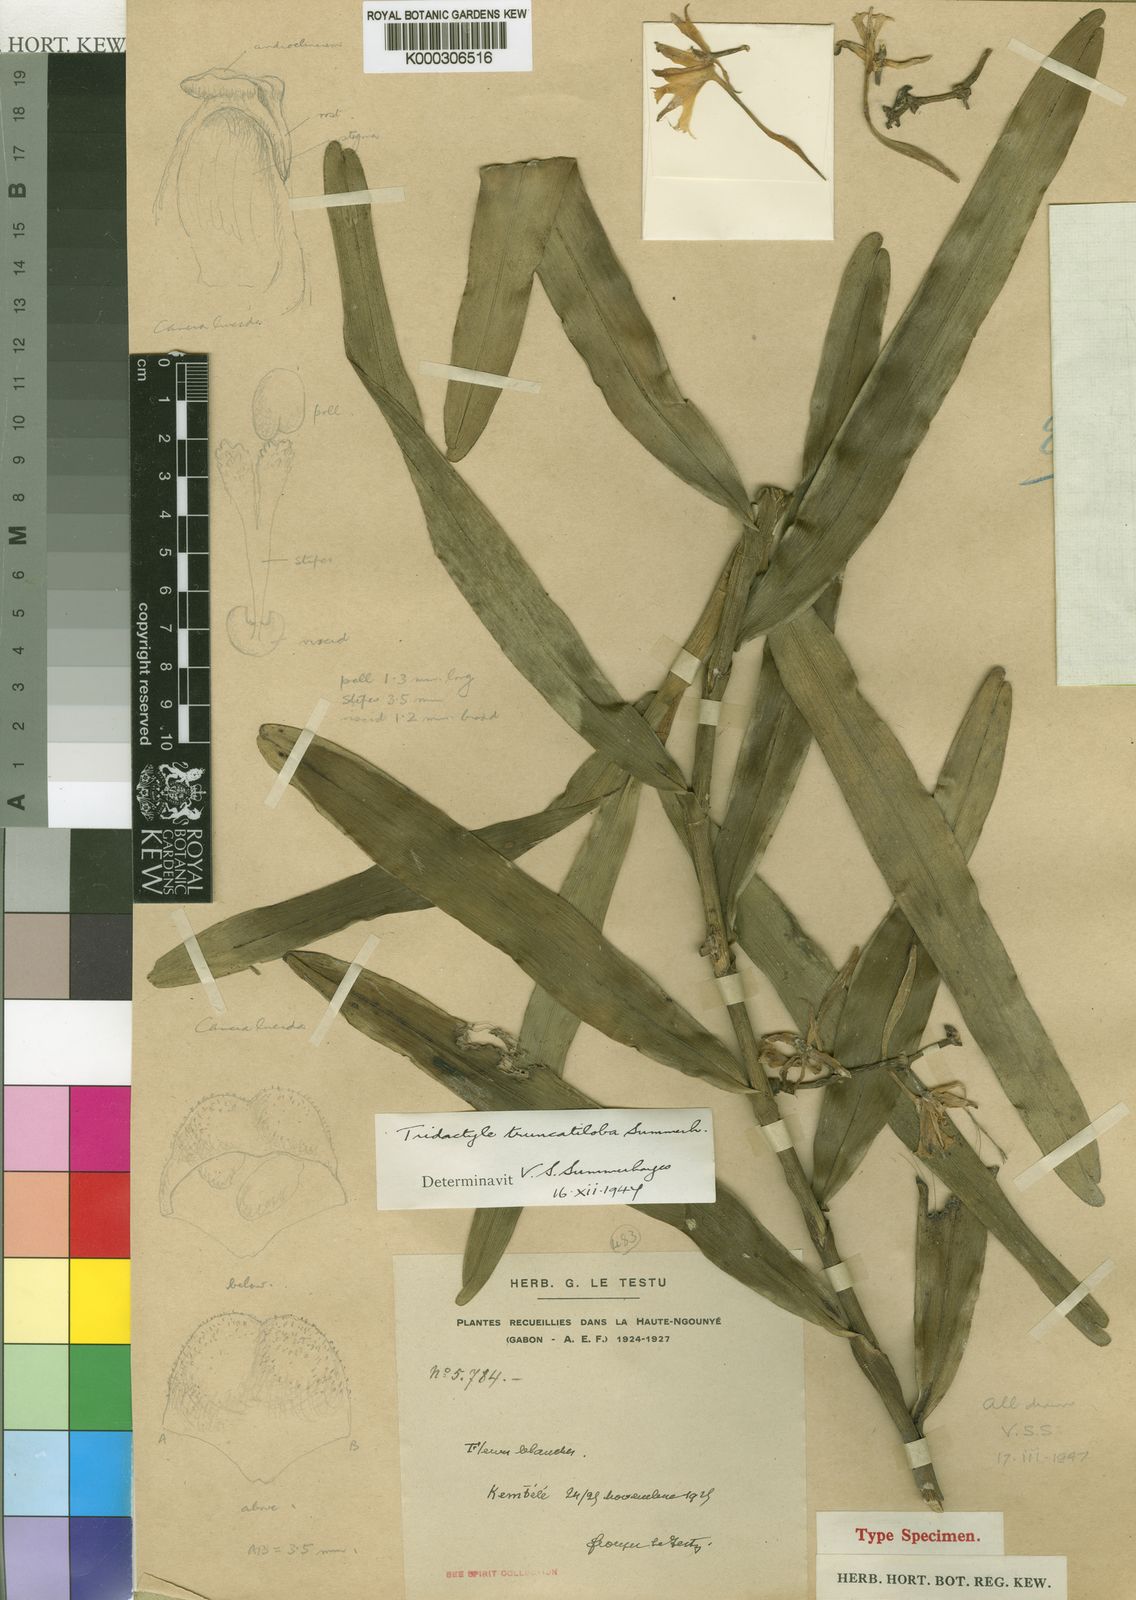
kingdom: Plantae
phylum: Tracheophyta
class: Liliopsida
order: Asparagales
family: Orchidaceae
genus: Tridactyle
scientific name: Tridactyle truncatiloba
